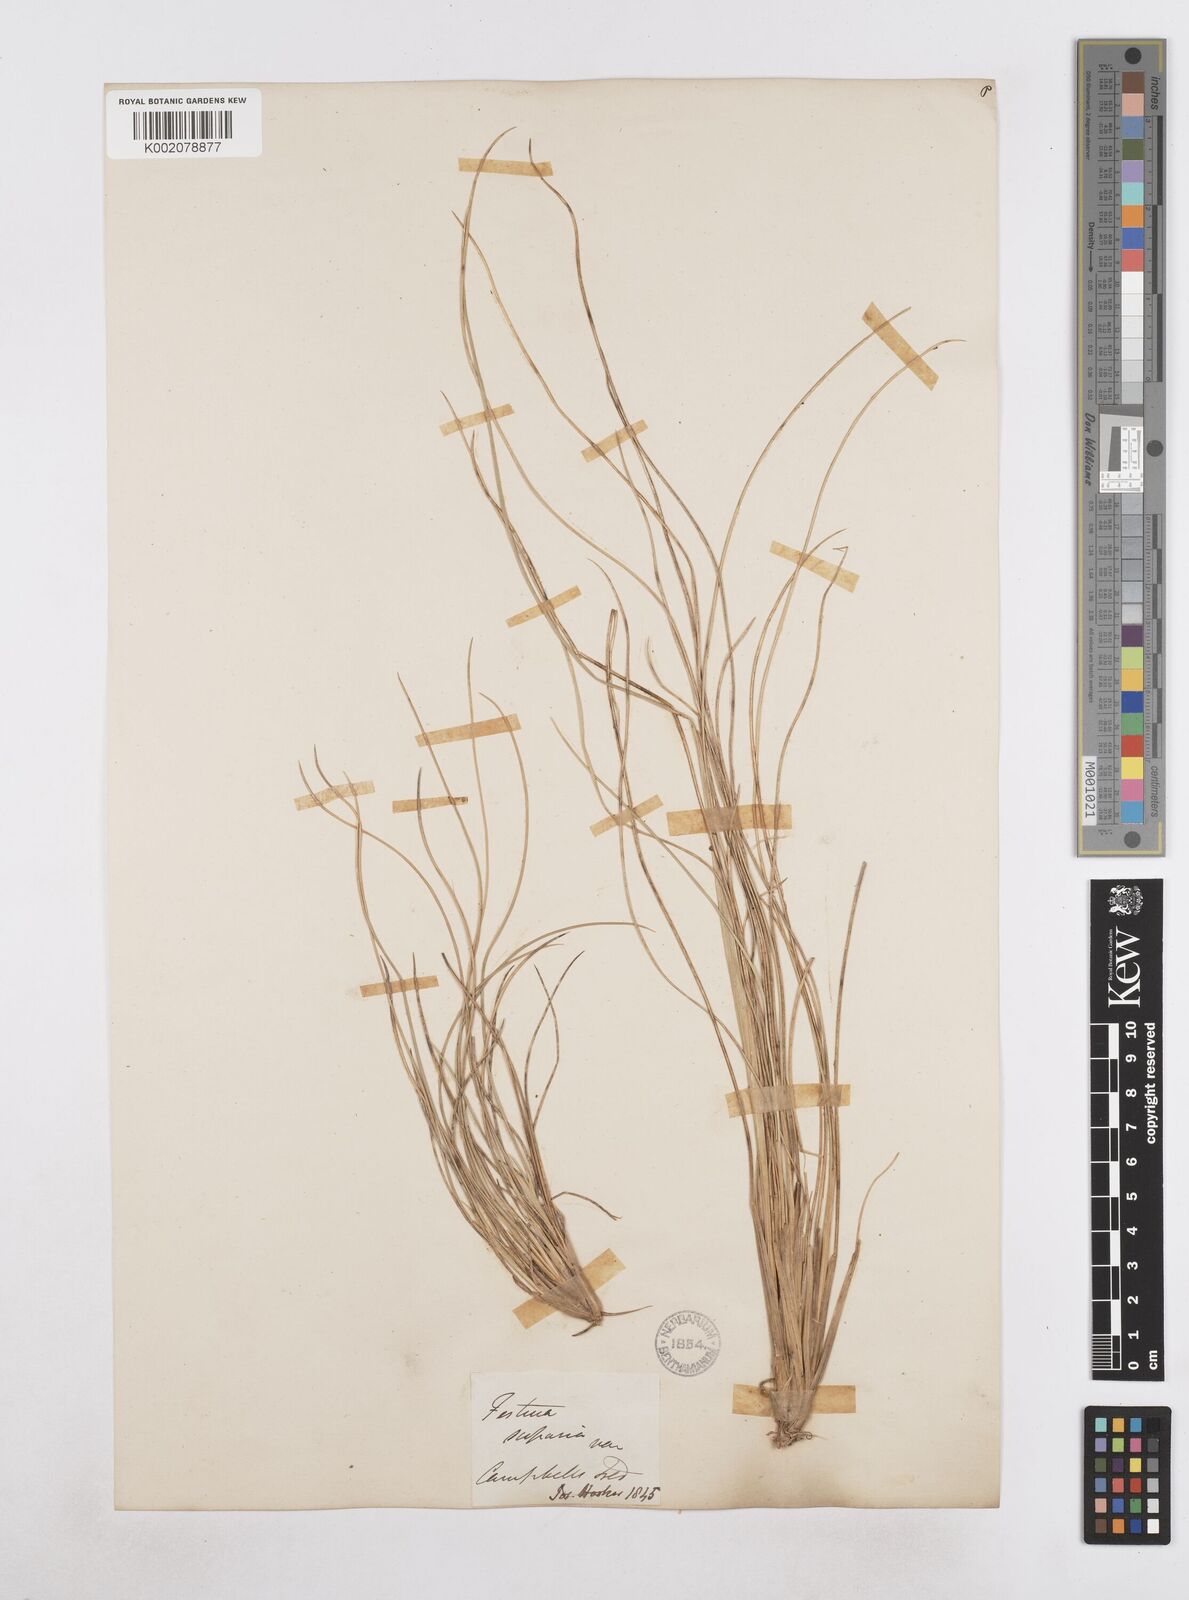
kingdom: Plantae
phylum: Tracheophyta
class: Liliopsida
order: Poales
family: Poaceae
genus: Poa
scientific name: Poa litorosa
